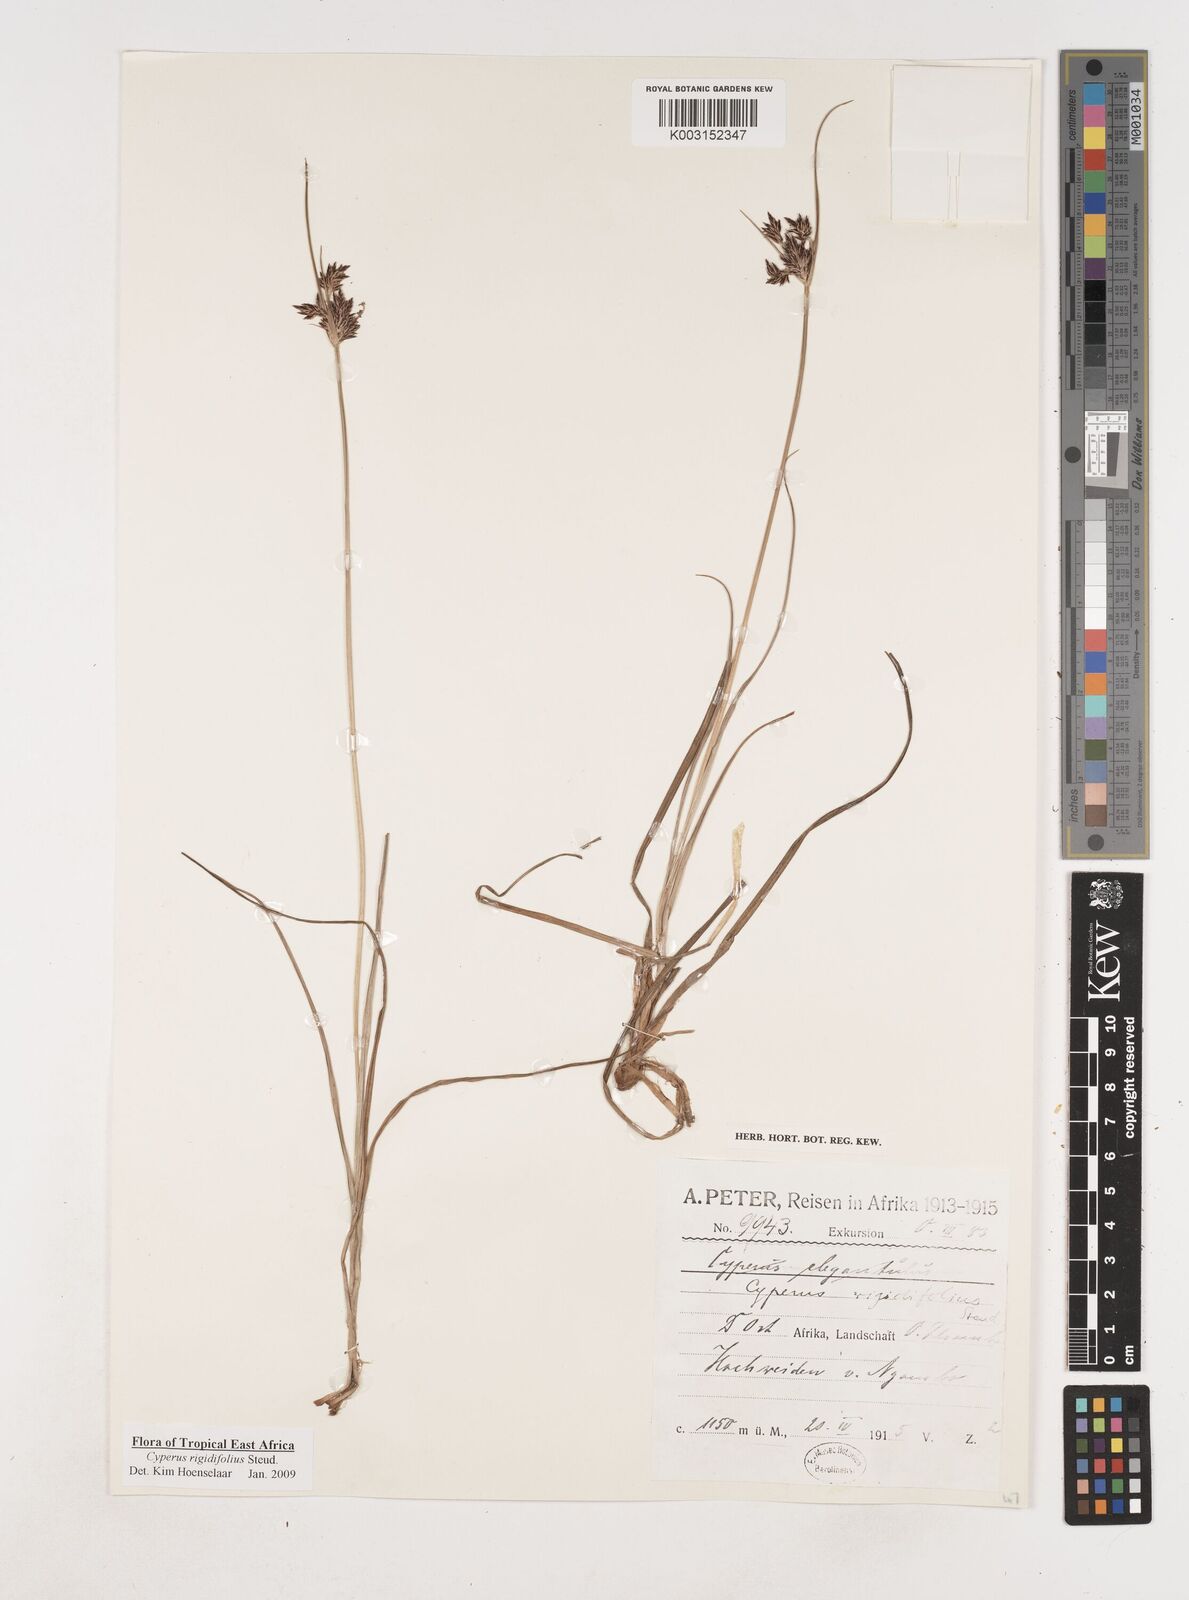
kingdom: Plantae
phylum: Tracheophyta
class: Liliopsida
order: Poales
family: Cyperaceae
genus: Cyperus
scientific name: Cyperus rigidifolius
